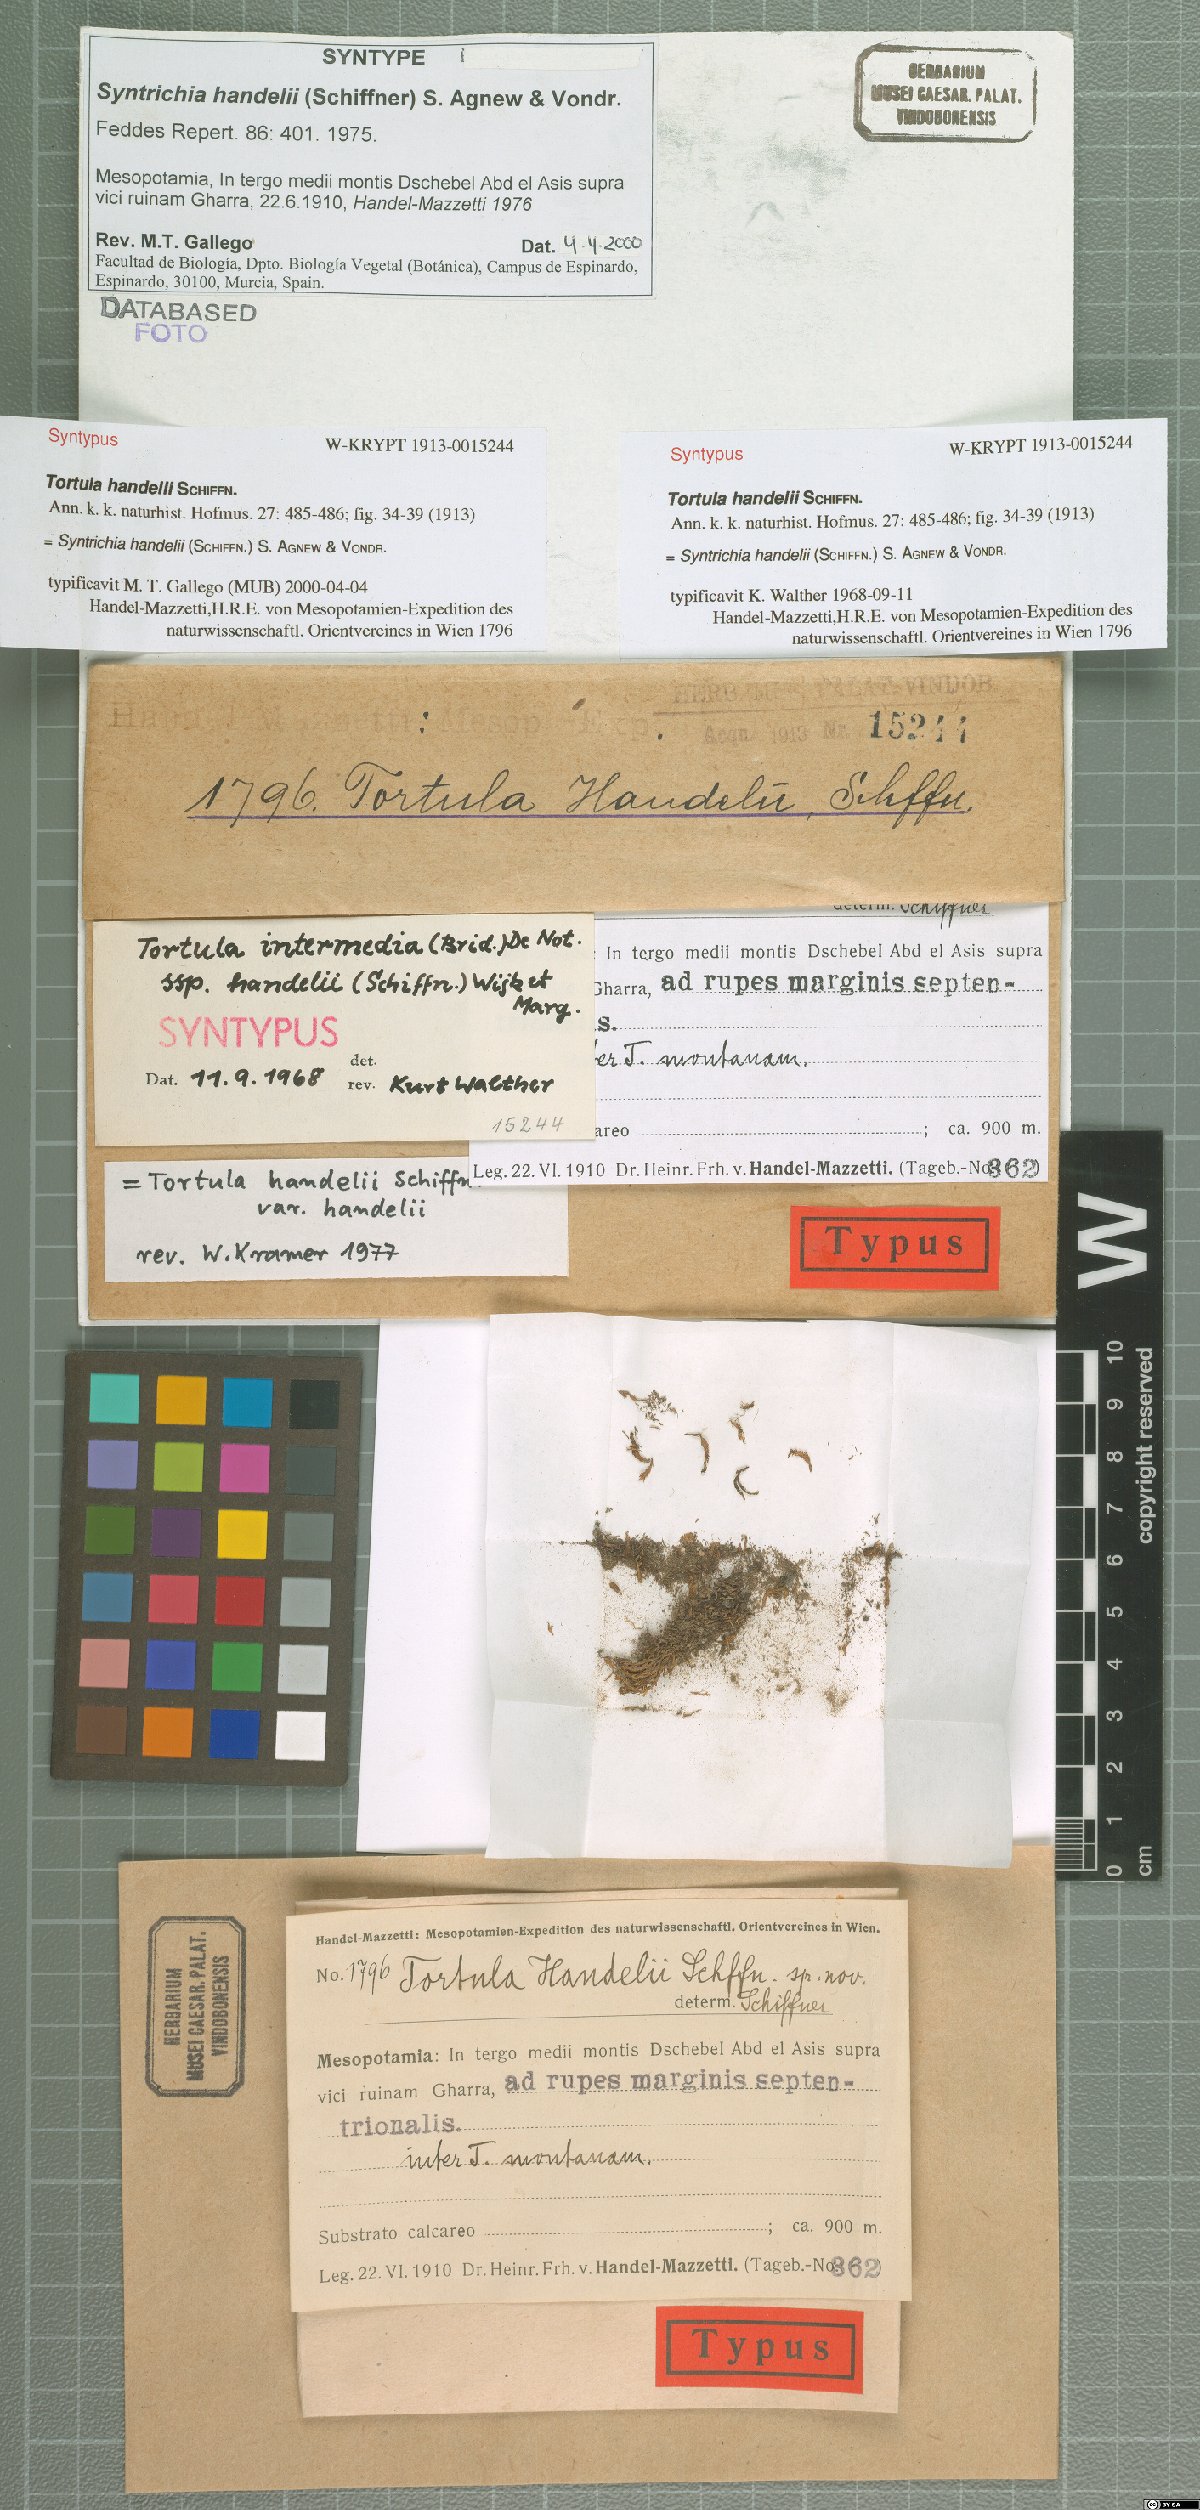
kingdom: Plantae
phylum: Bryophyta
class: Bryopsida
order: Pottiales
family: Pottiaceae
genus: Syntrichia
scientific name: Syntrichia handelii
